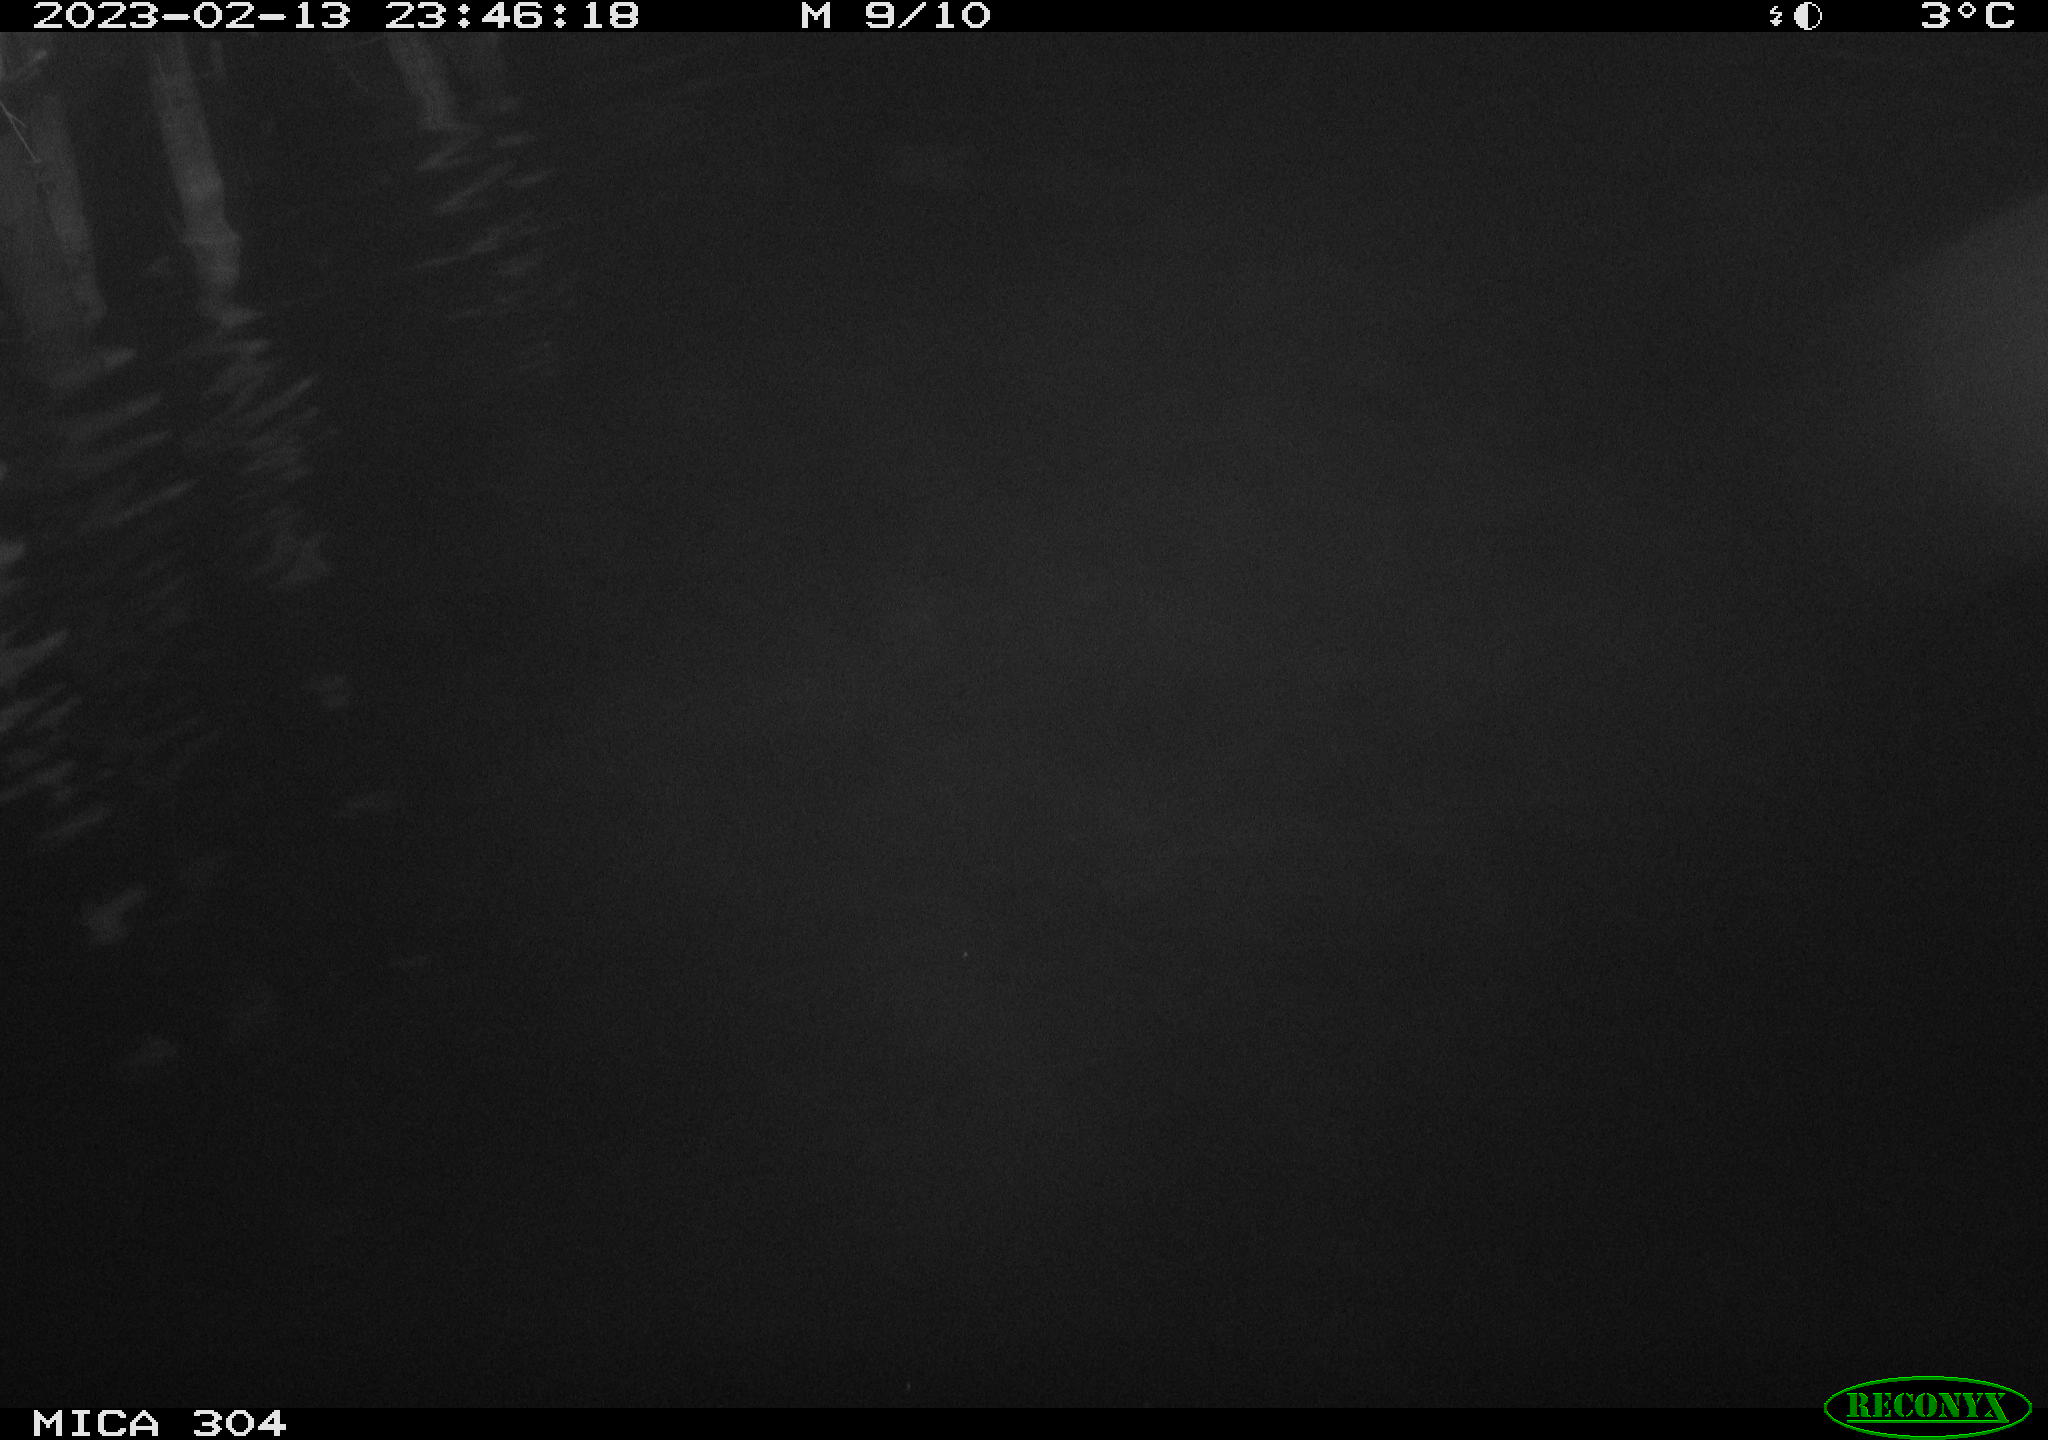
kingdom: Animalia
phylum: Chordata
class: Mammalia
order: Rodentia
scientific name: Rodentia
